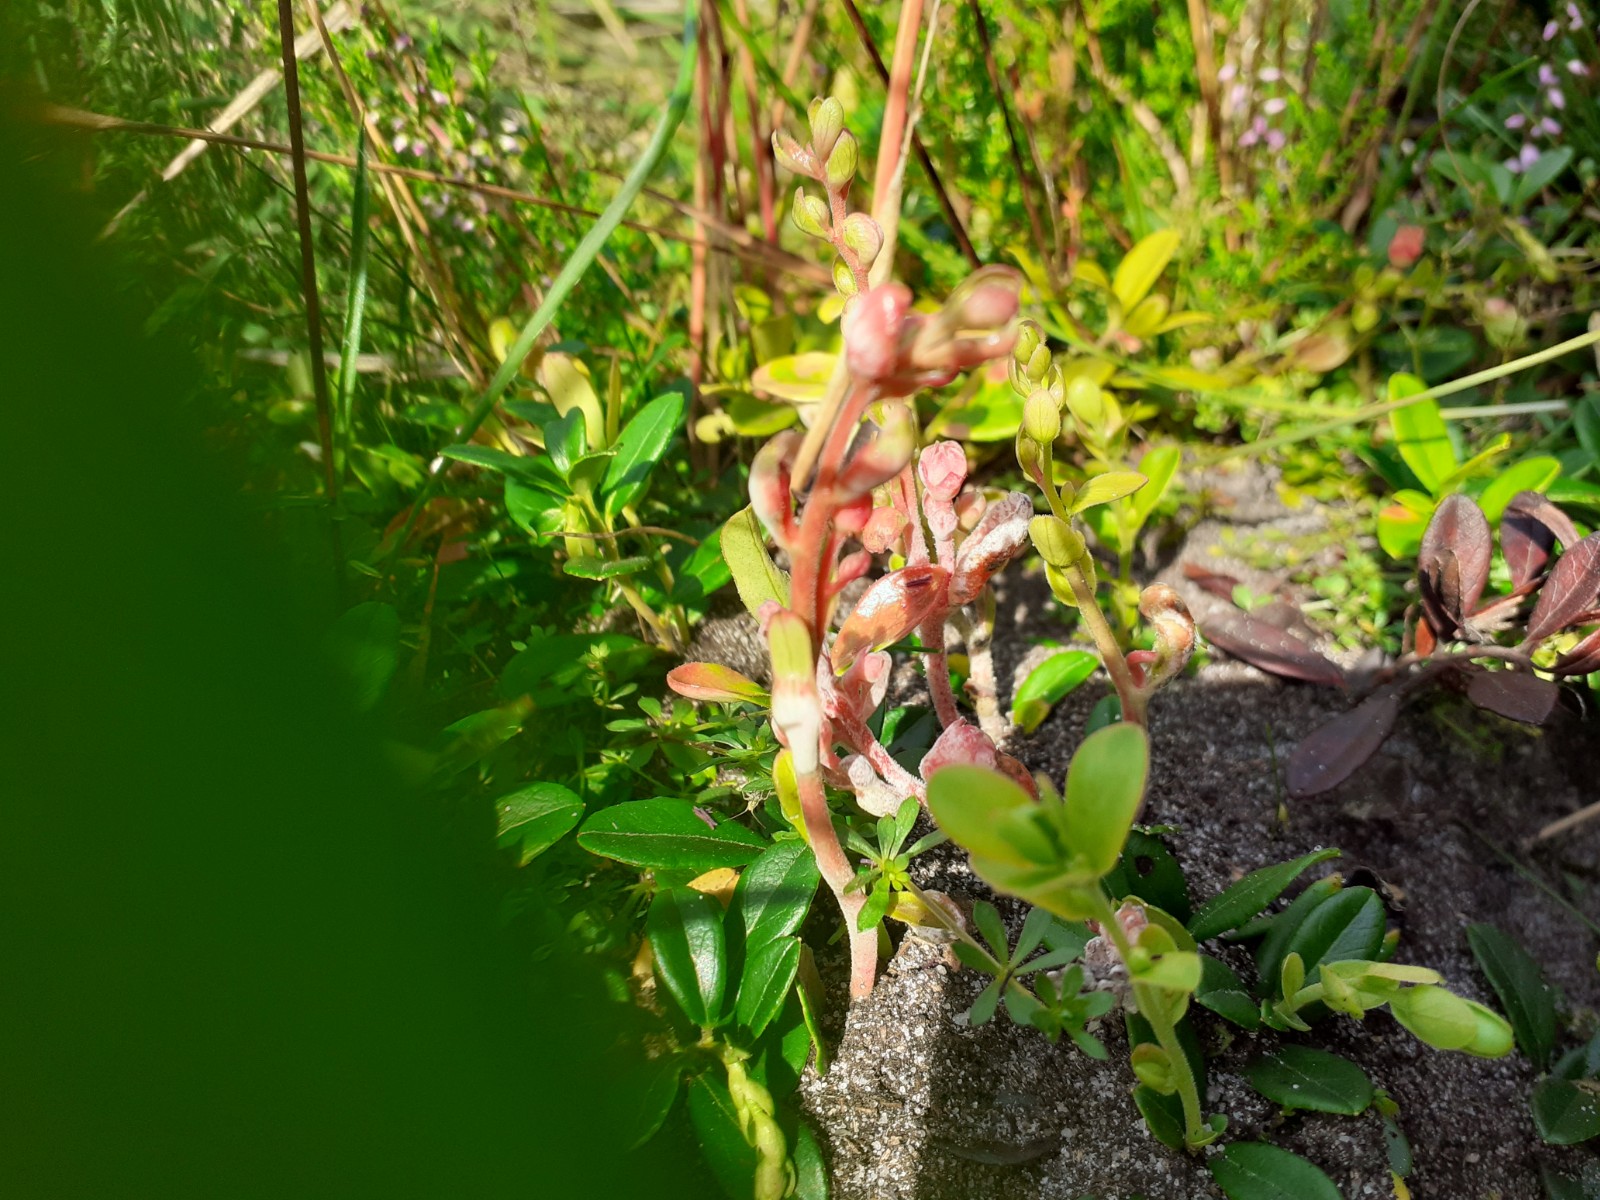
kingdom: Fungi
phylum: Basidiomycota
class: Exobasidiomycetes
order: Exobasidiales
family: Exobasidiaceae
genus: Exobasidium
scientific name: Exobasidium vaccinii
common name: tyttebærblad-bøllesvamp
